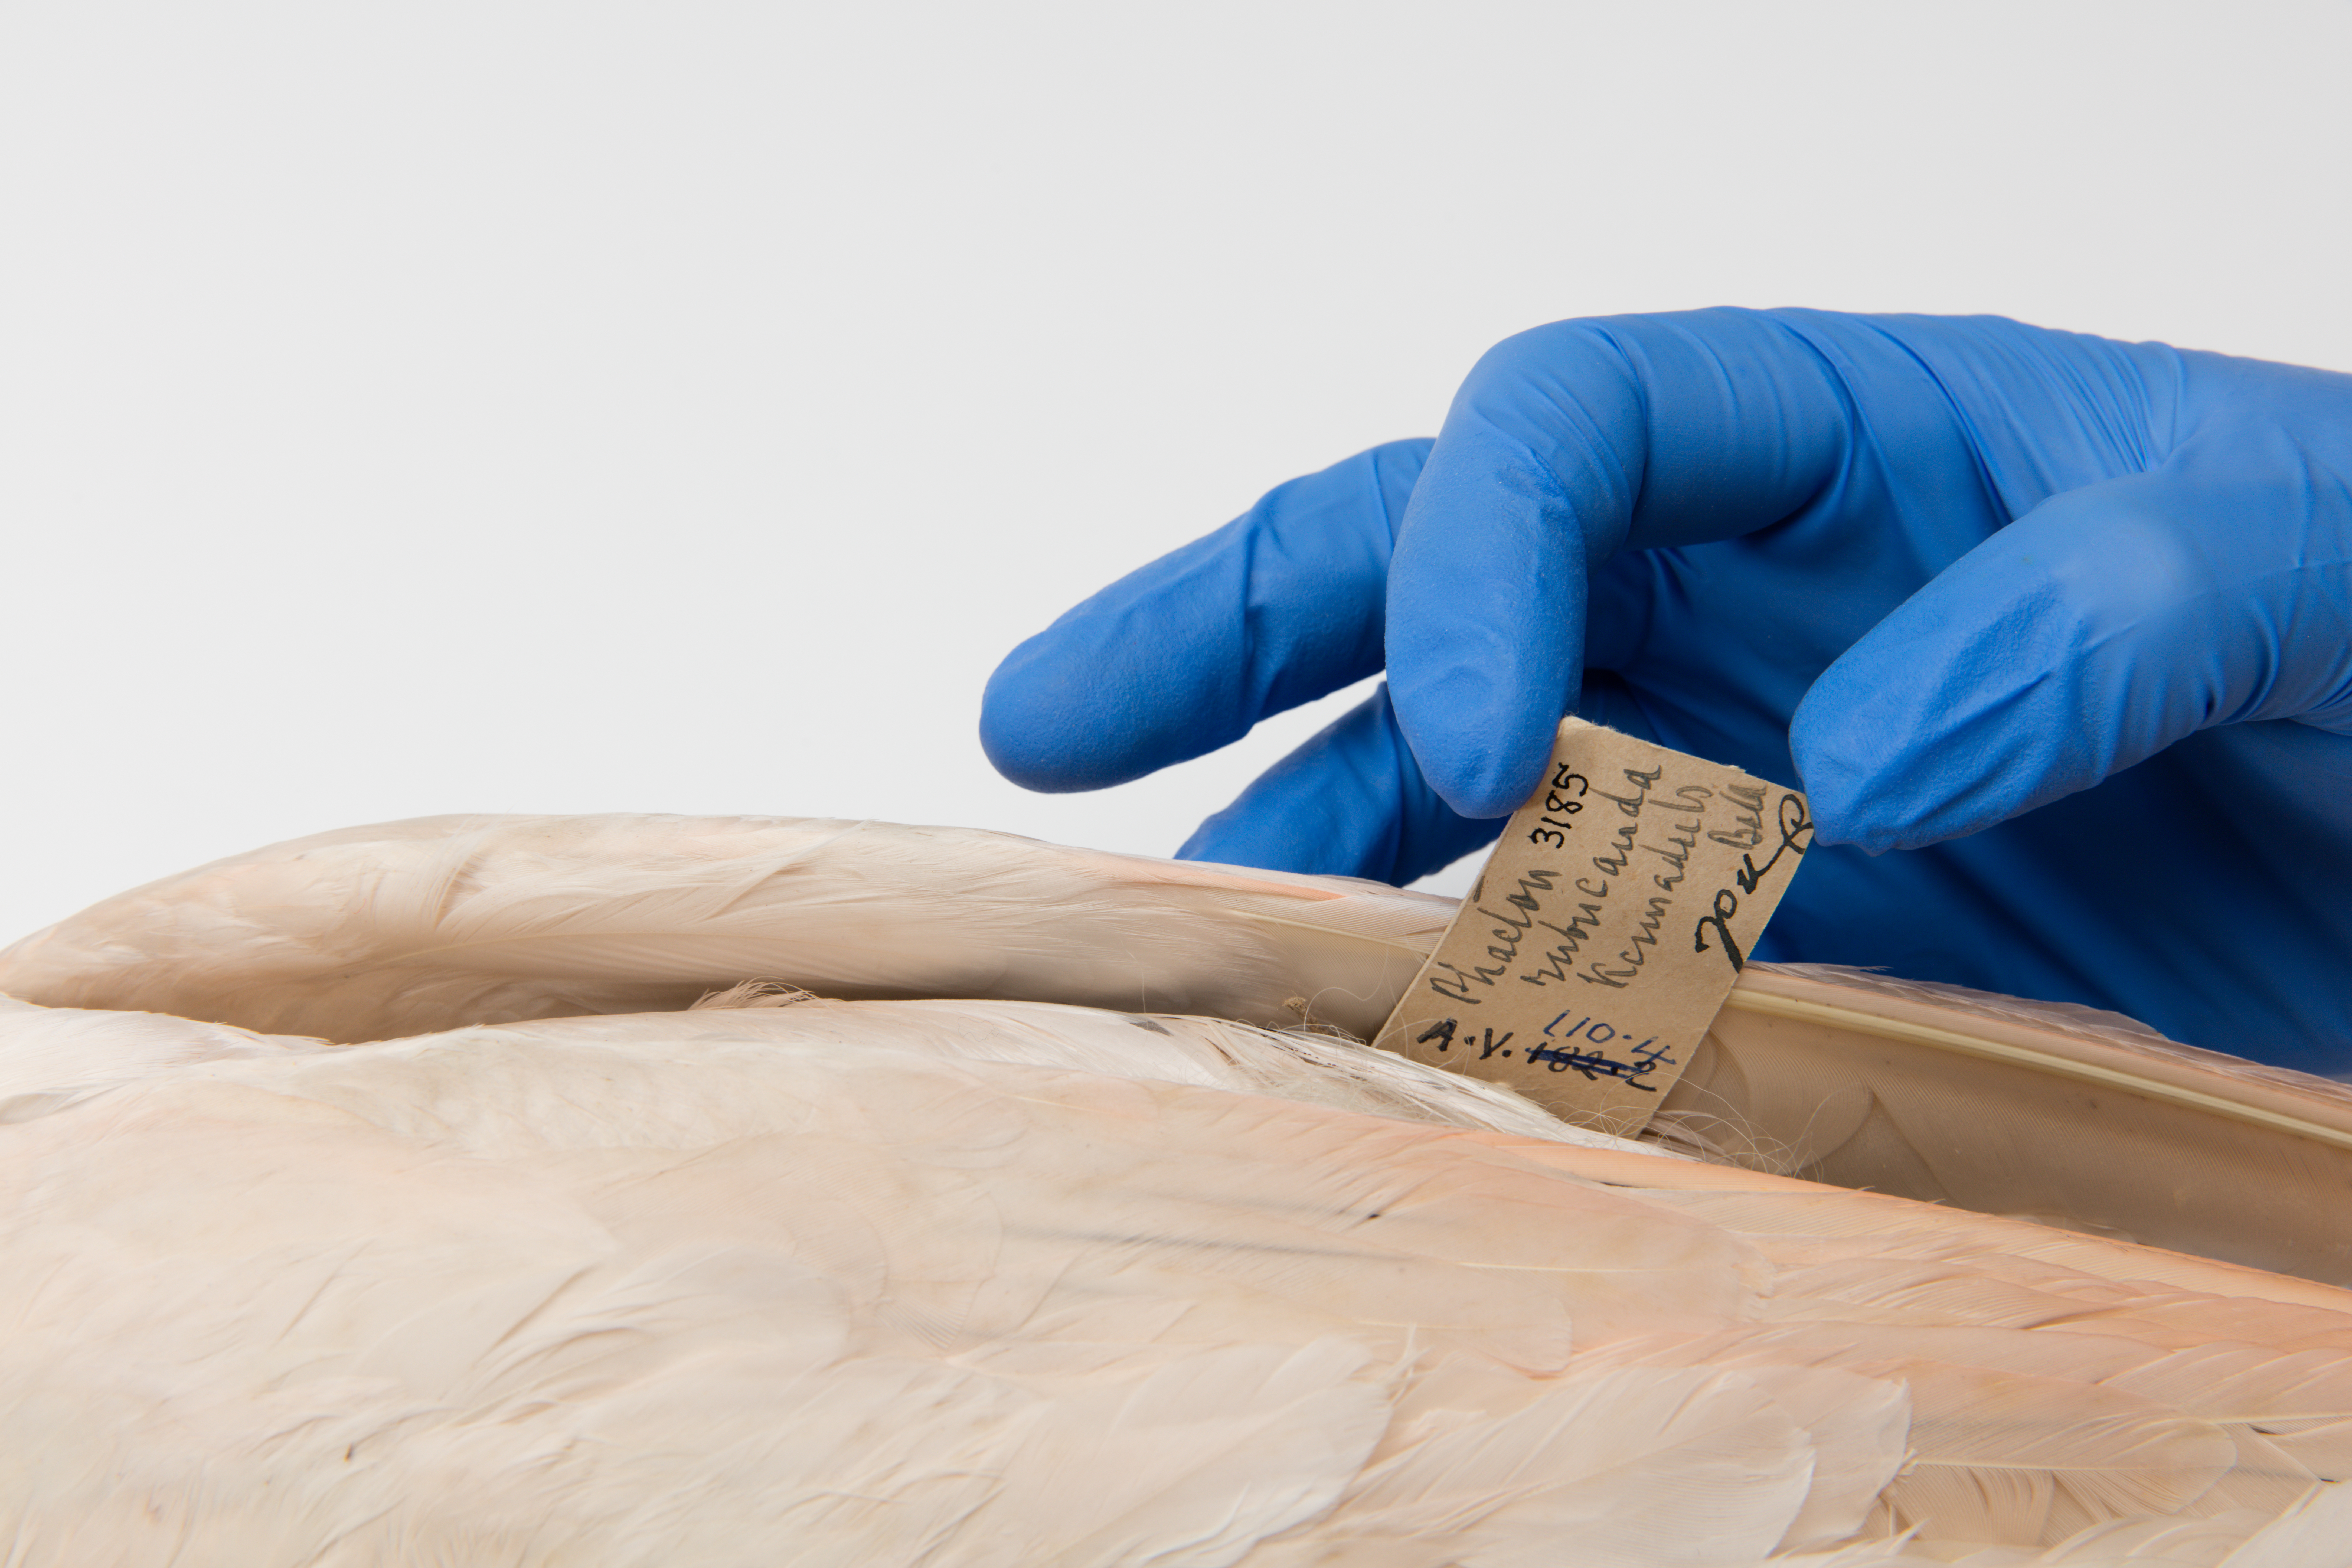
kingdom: Animalia
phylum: Chordata
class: Aves
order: Phaethontiformes
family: Phaethontidae
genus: Phaethon
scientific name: Phaethon rubricauda
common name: Red-tailed tropicbird
